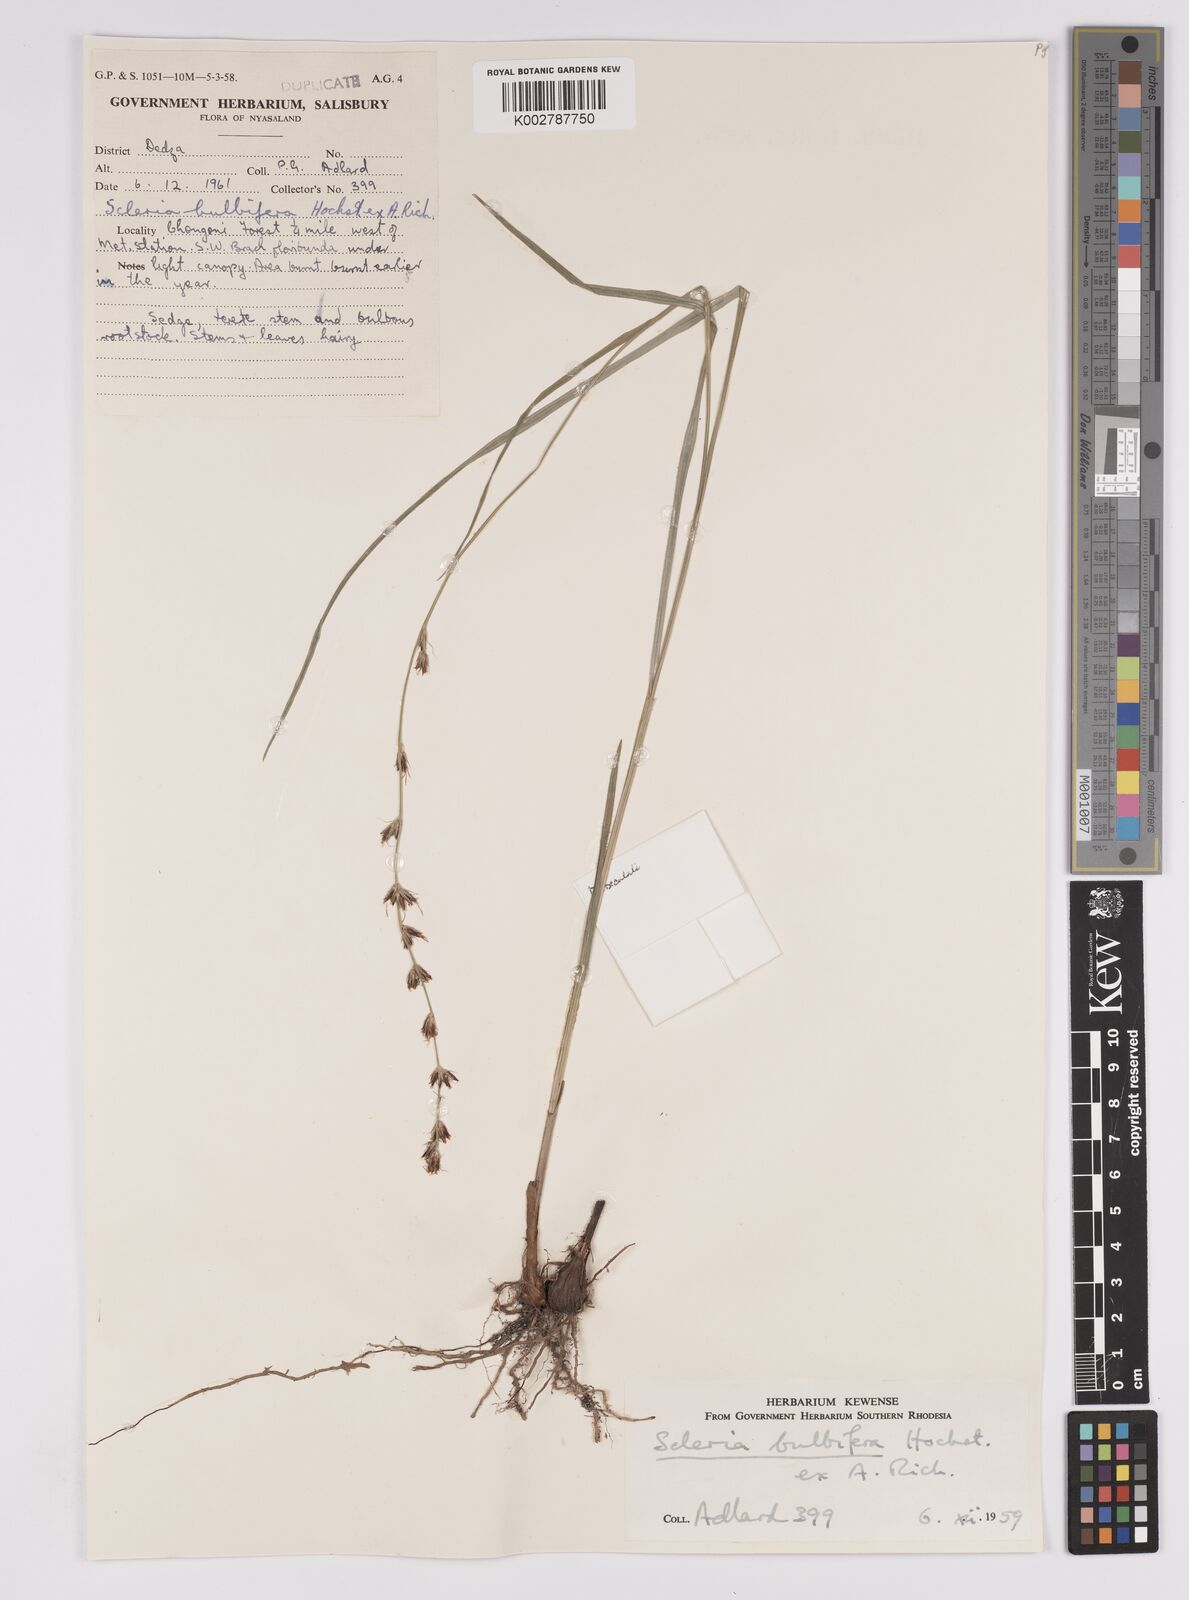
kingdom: Plantae
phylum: Tracheophyta
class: Liliopsida
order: Poales
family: Cyperaceae
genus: Scleria
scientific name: Scleria bulbifera
